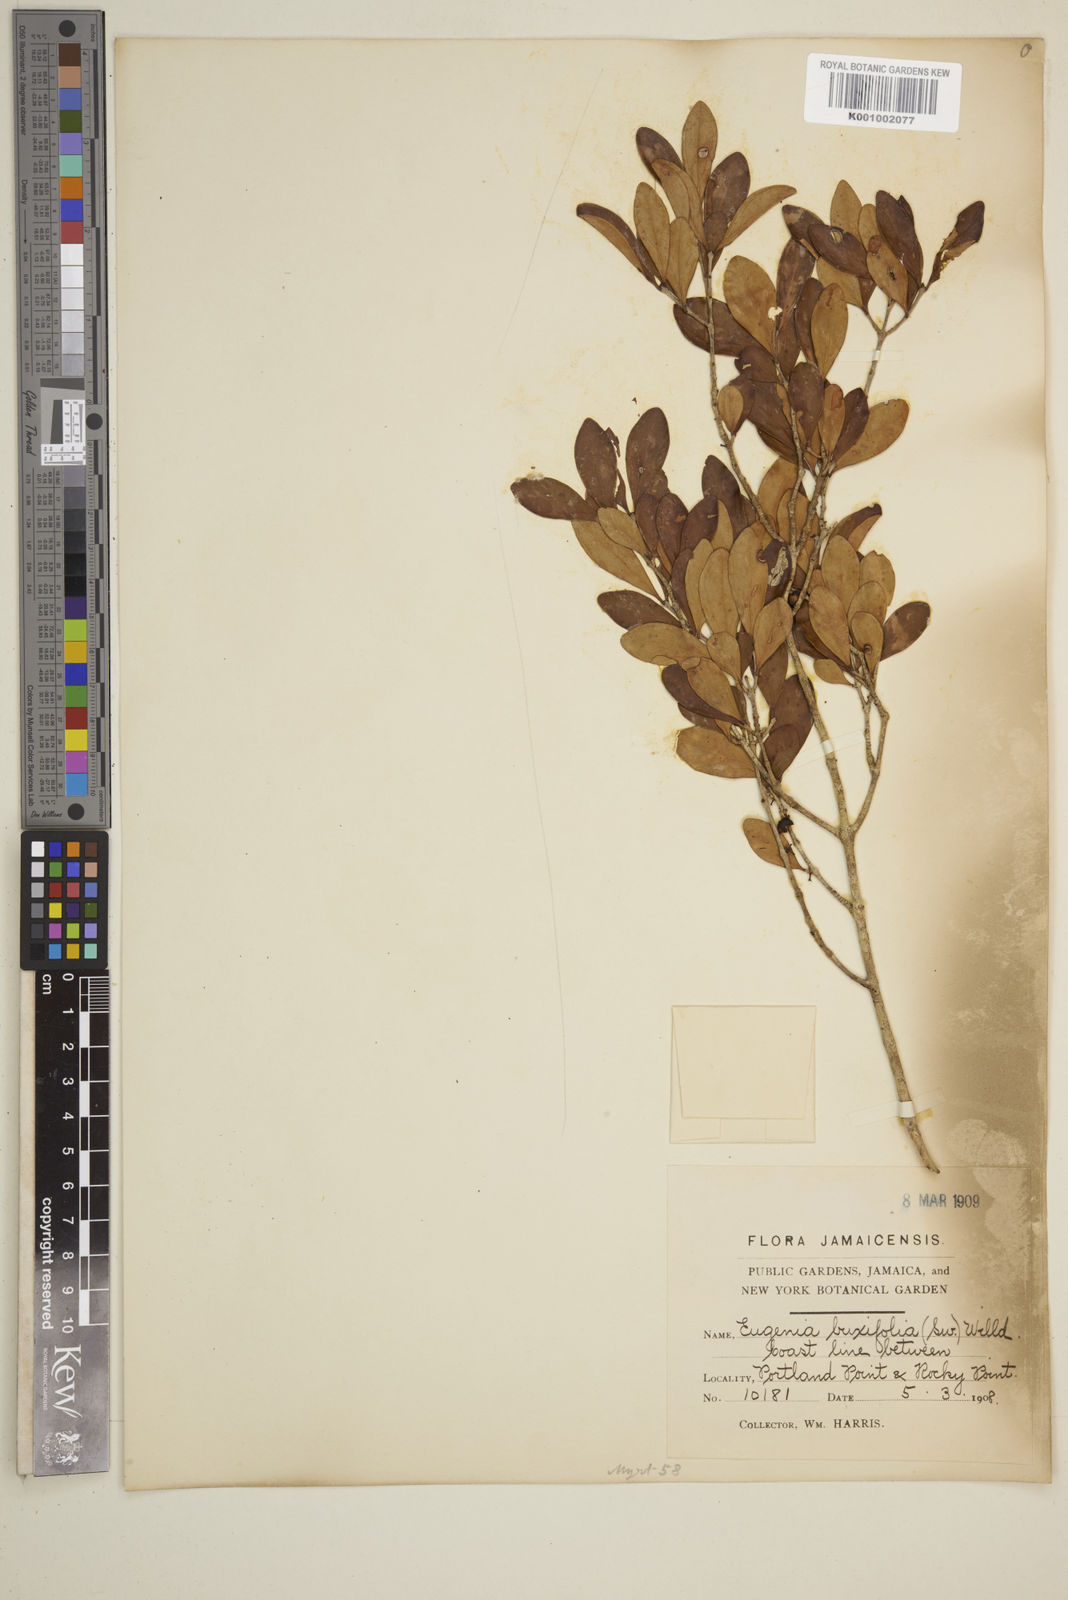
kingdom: Plantae
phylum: Tracheophyta
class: Magnoliopsida
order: Myrtales
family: Myrtaceae
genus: Eugenia
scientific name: Eugenia buxifolia
